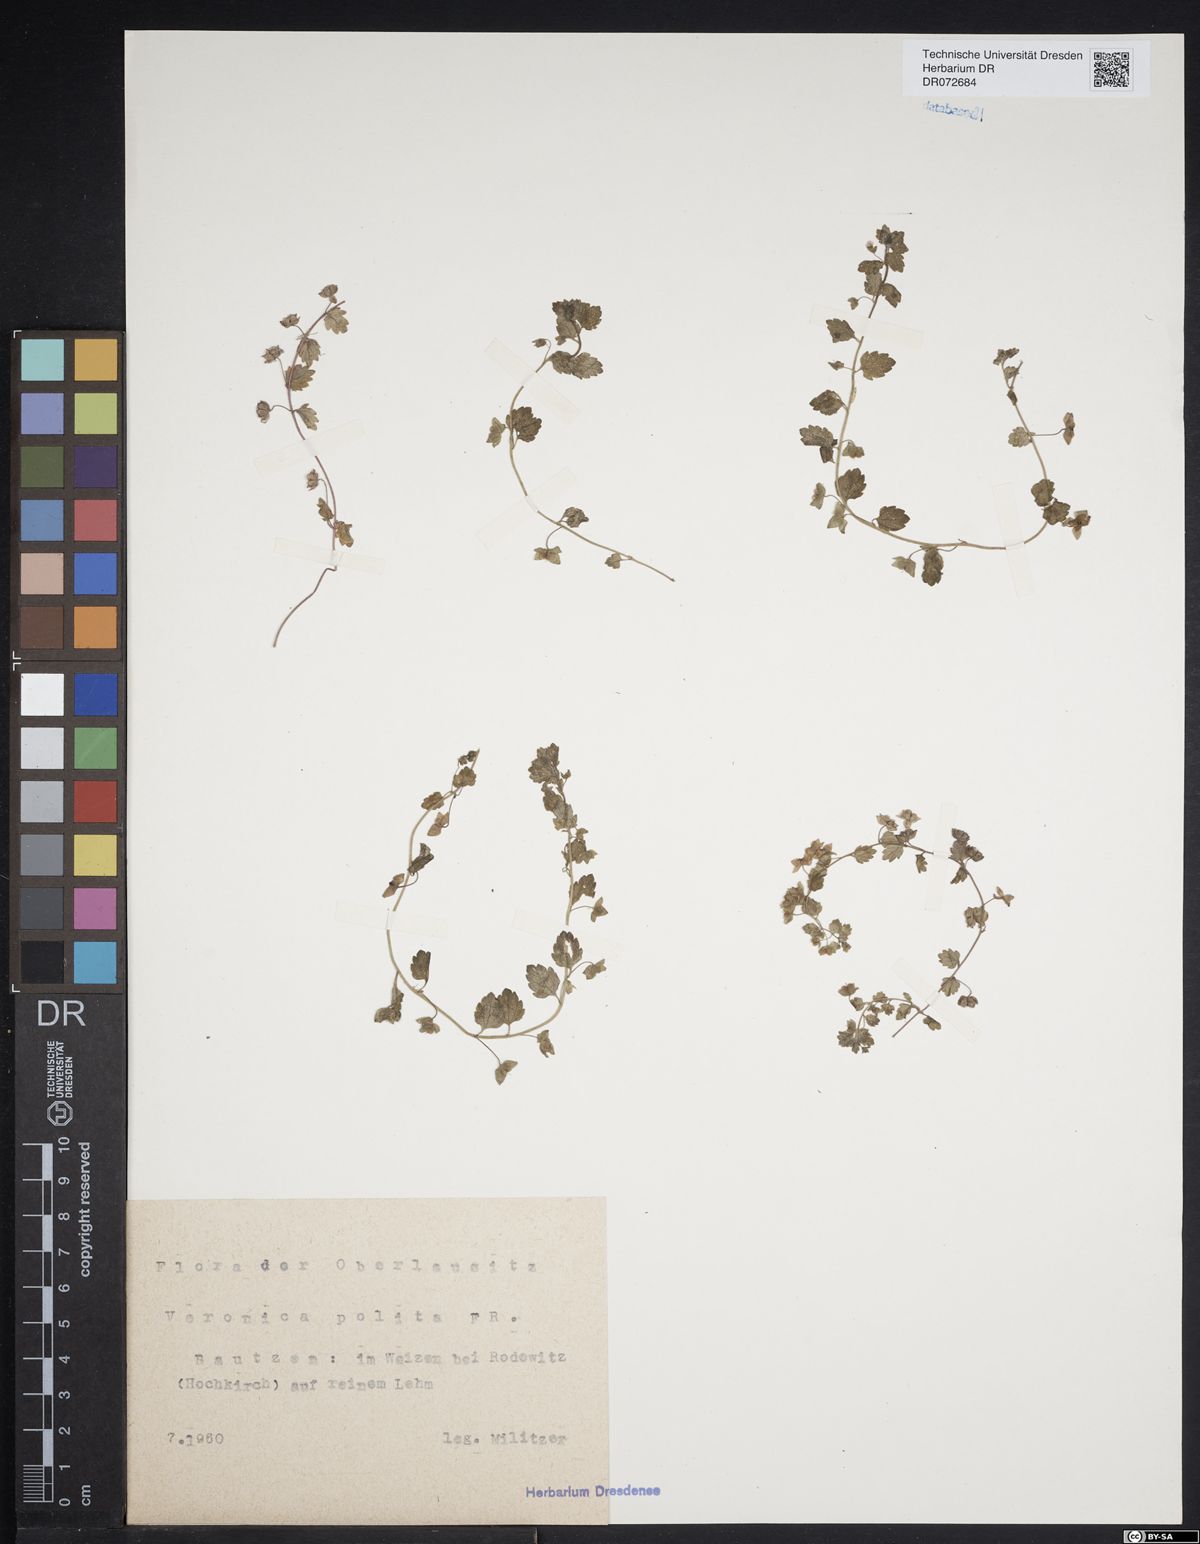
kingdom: Plantae
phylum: Tracheophyta
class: Magnoliopsida
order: Lamiales
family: Plantaginaceae
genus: Veronica
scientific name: Veronica polita
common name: Grey field-speedwell
